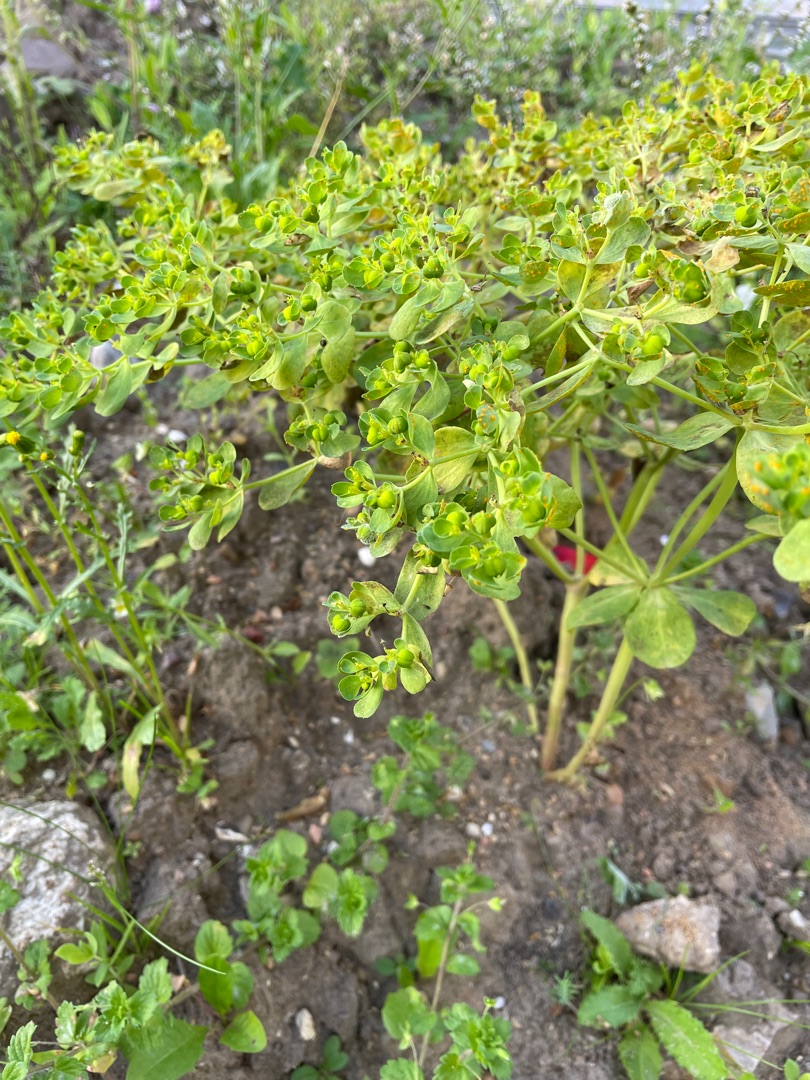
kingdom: Plantae
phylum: Tracheophyta
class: Magnoliopsida
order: Malpighiales
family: Euphorbiaceae
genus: Euphorbia
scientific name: Euphorbia helioscopia
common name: Skærm-vortemælk
